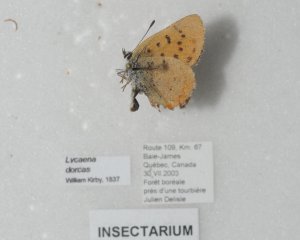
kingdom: Animalia
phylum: Arthropoda
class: Insecta
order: Lepidoptera
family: Lycaenidae
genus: Epidemia
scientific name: Epidemia dorcas
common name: Dorcas Copper
